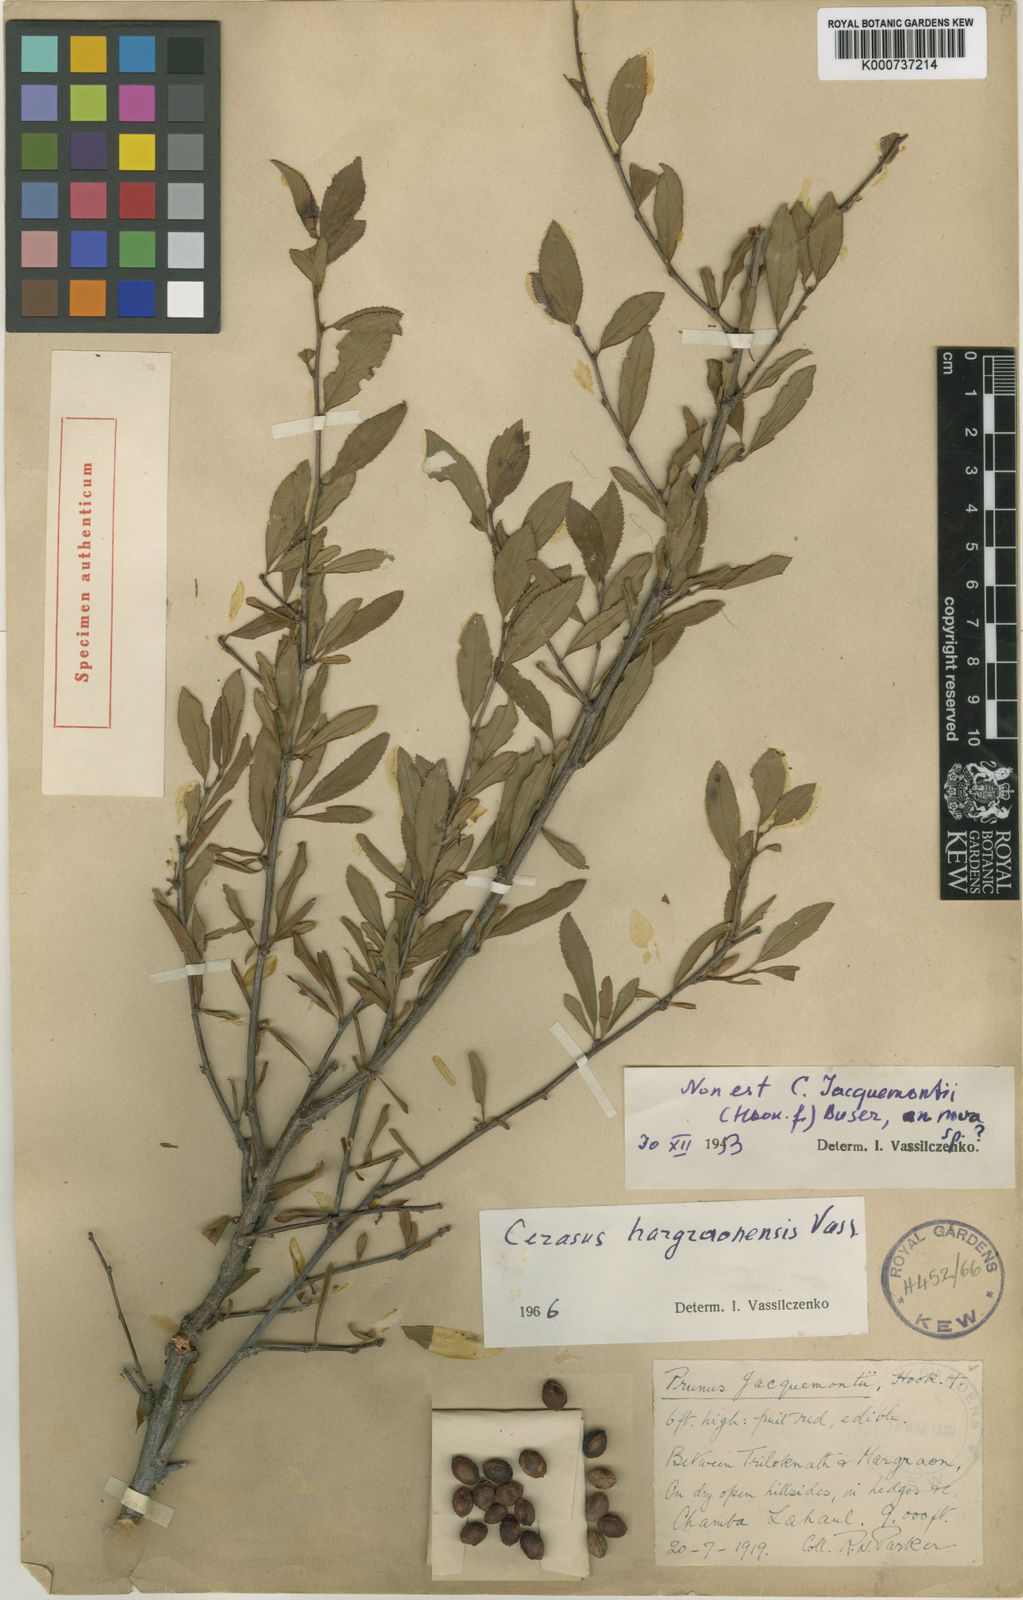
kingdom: Plantae
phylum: Tracheophyta
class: Magnoliopsida
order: Rosales
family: Rosaceae
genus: Prunus
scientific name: Prunus
